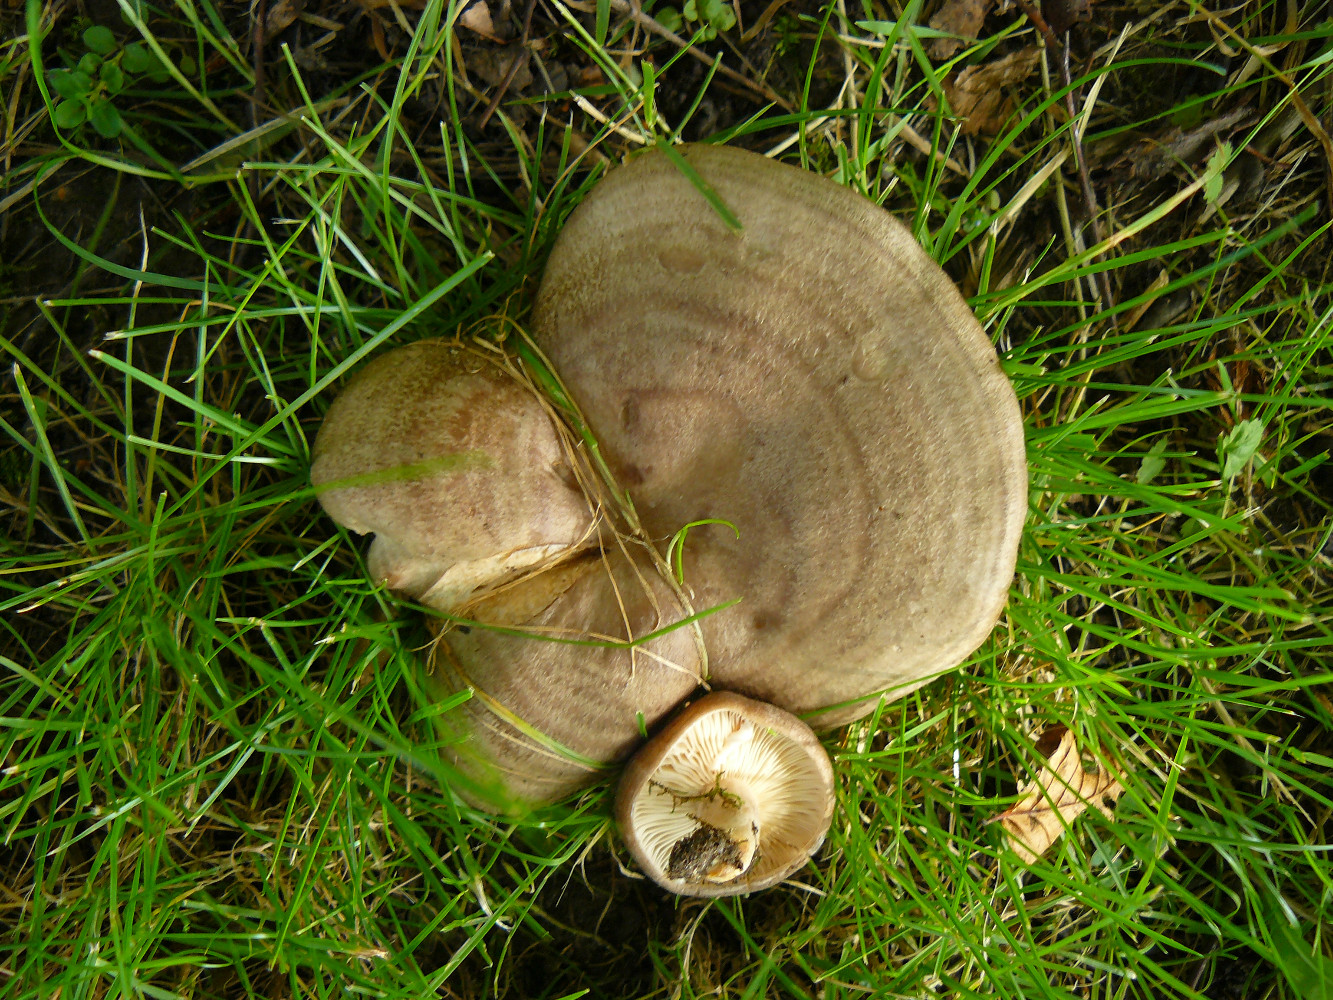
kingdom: Fungi
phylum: Basidiomycota
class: Agaricomycetes
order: Russulales
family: Russulaceae
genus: Lactarius
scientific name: Lactarius circellatus
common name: avnbøg-mælkehat
